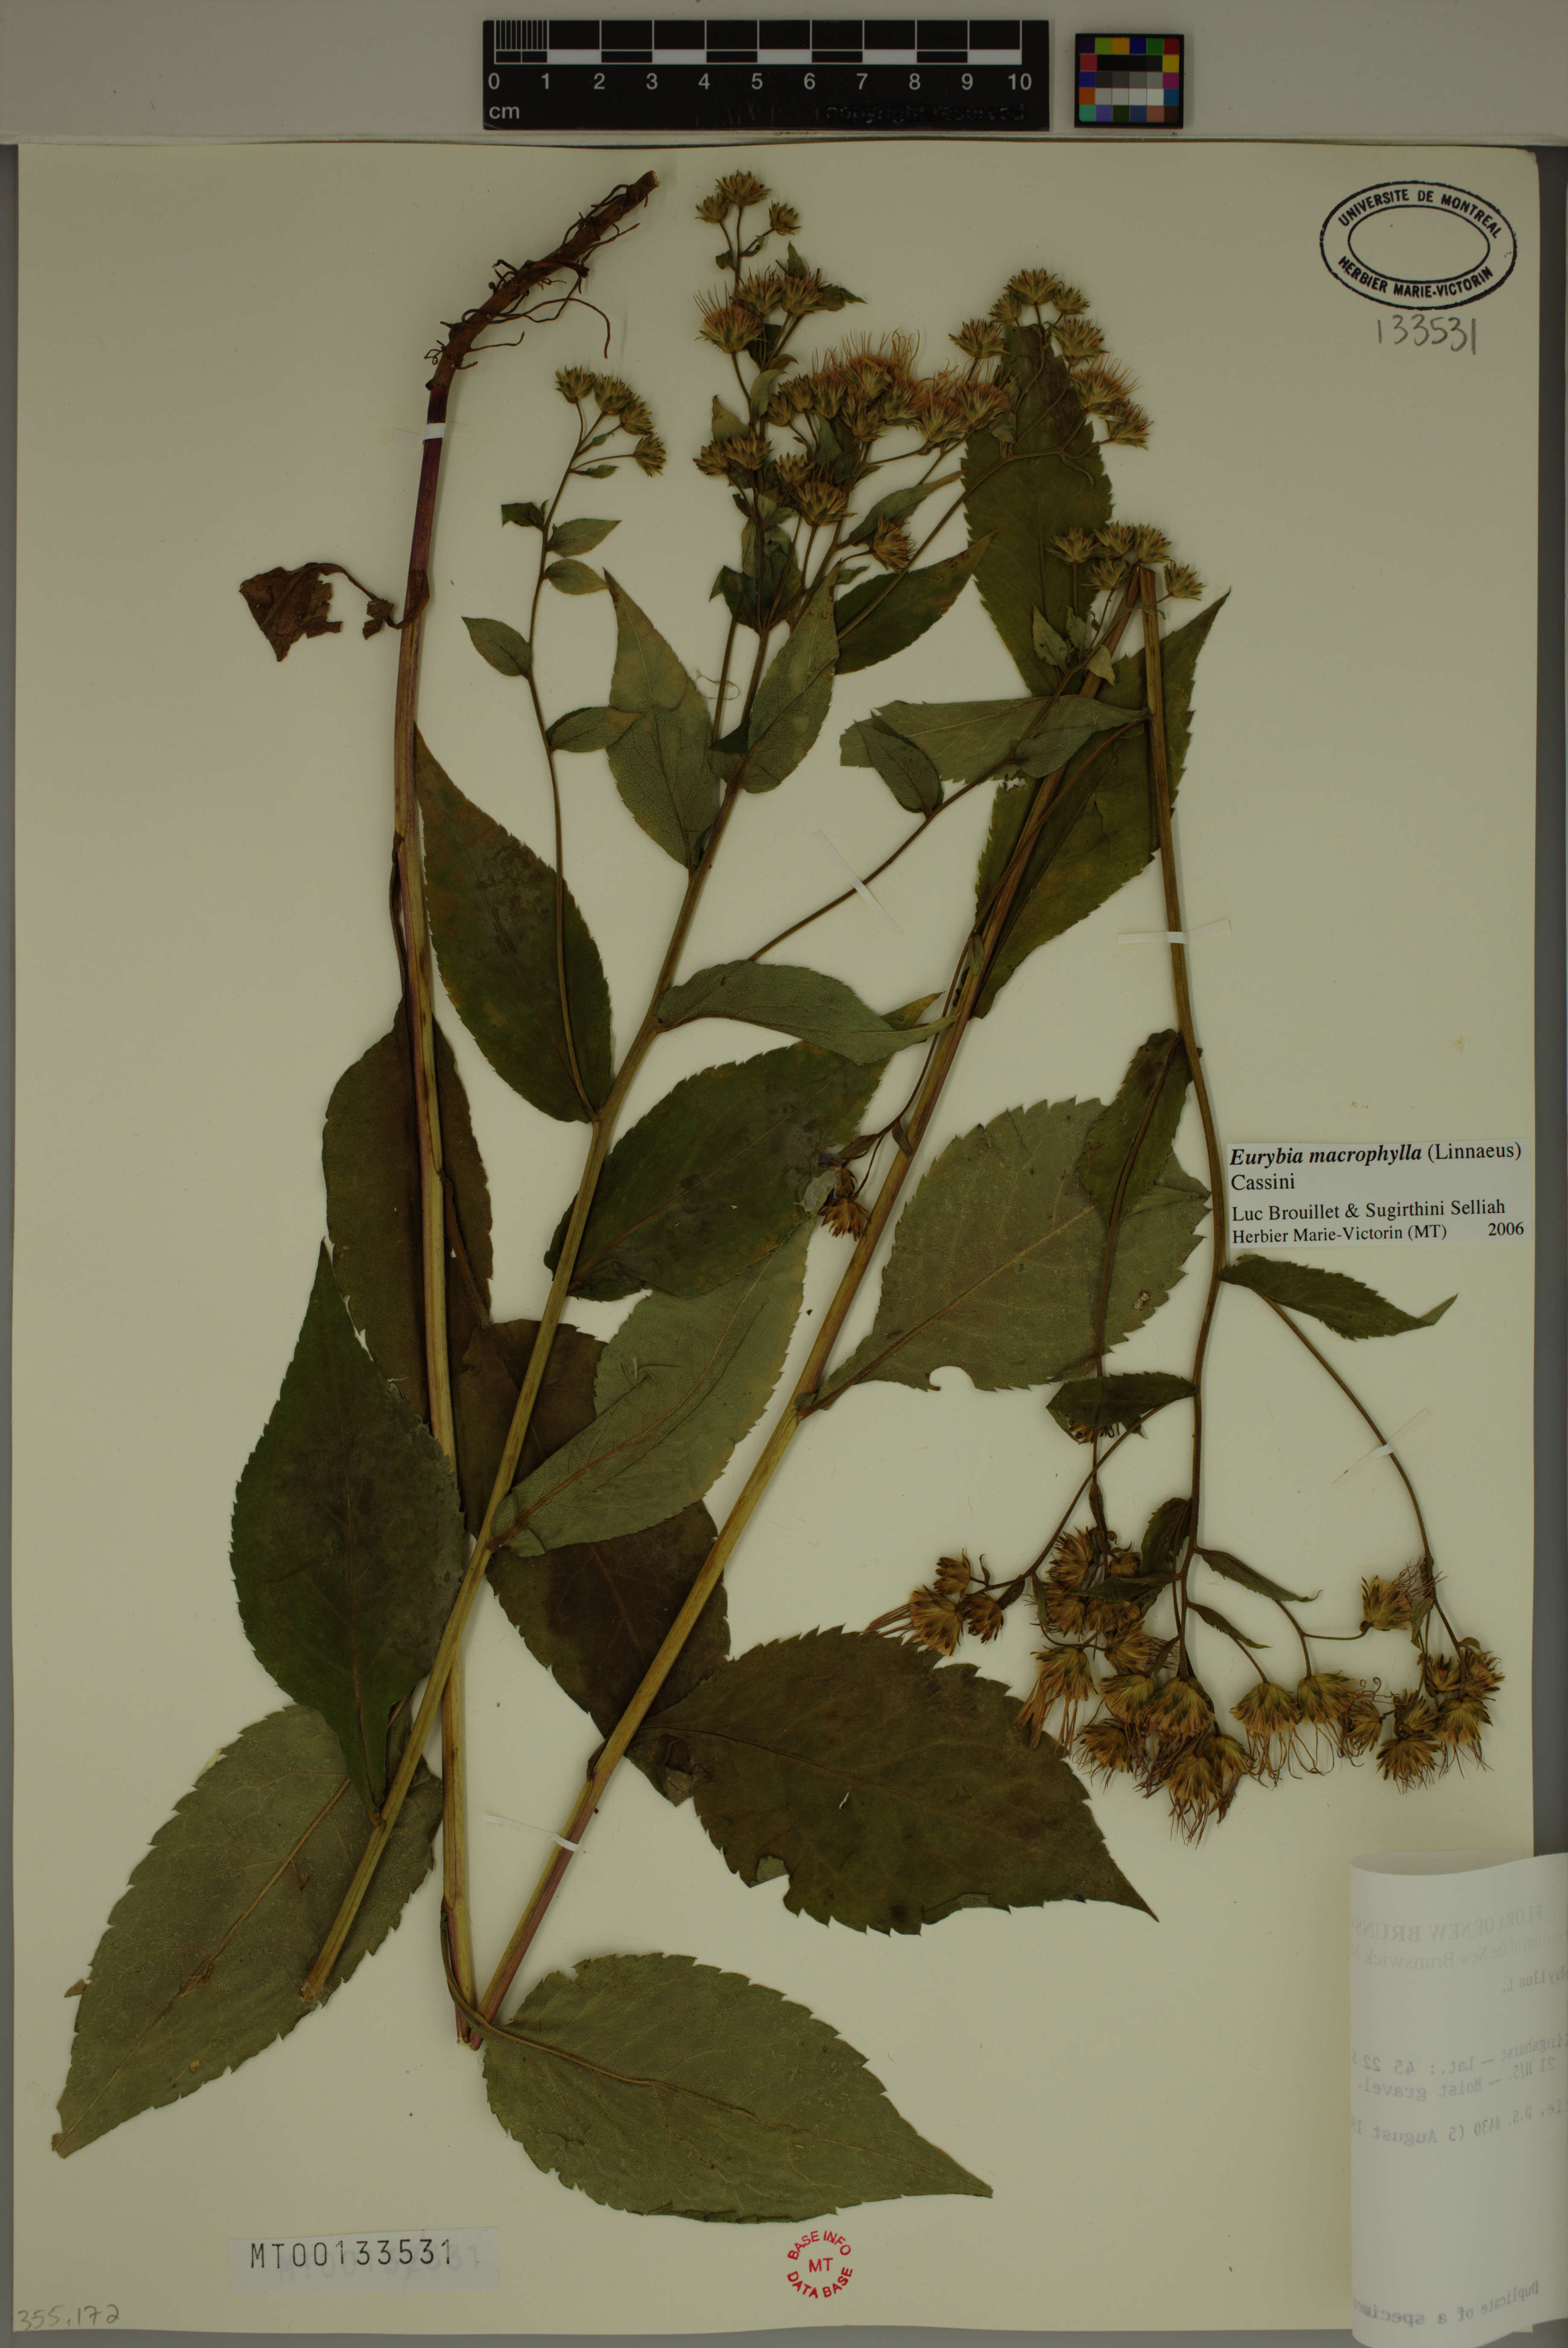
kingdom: Plantae
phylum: Tracheophyta
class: Magnoliopsida
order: Asterales
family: Asteraceae
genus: Eurybia
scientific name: Eurybia macrophylla
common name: Big-leaved aster
